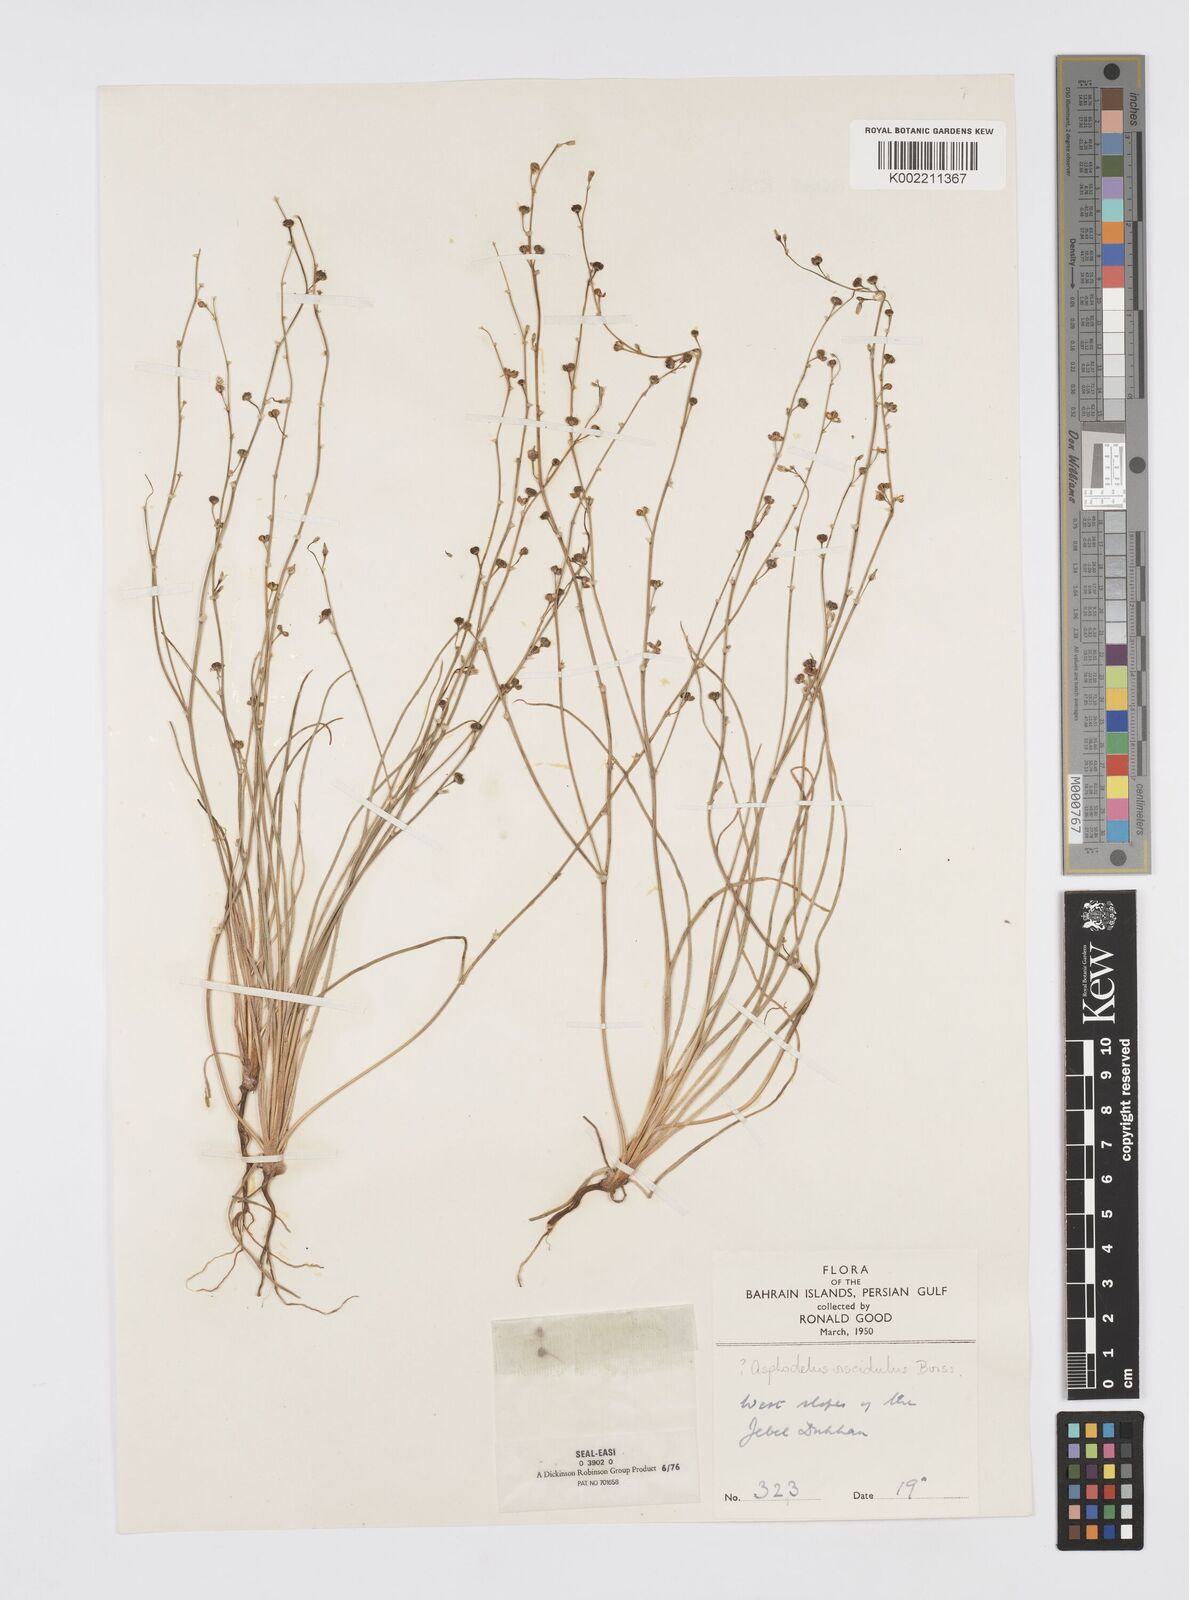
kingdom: Plantae
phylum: Tracheophyta
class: Liliopsida
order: Asparagales
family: Asphodelaceae
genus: Asphodelus
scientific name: Asphodelus viscidulus
